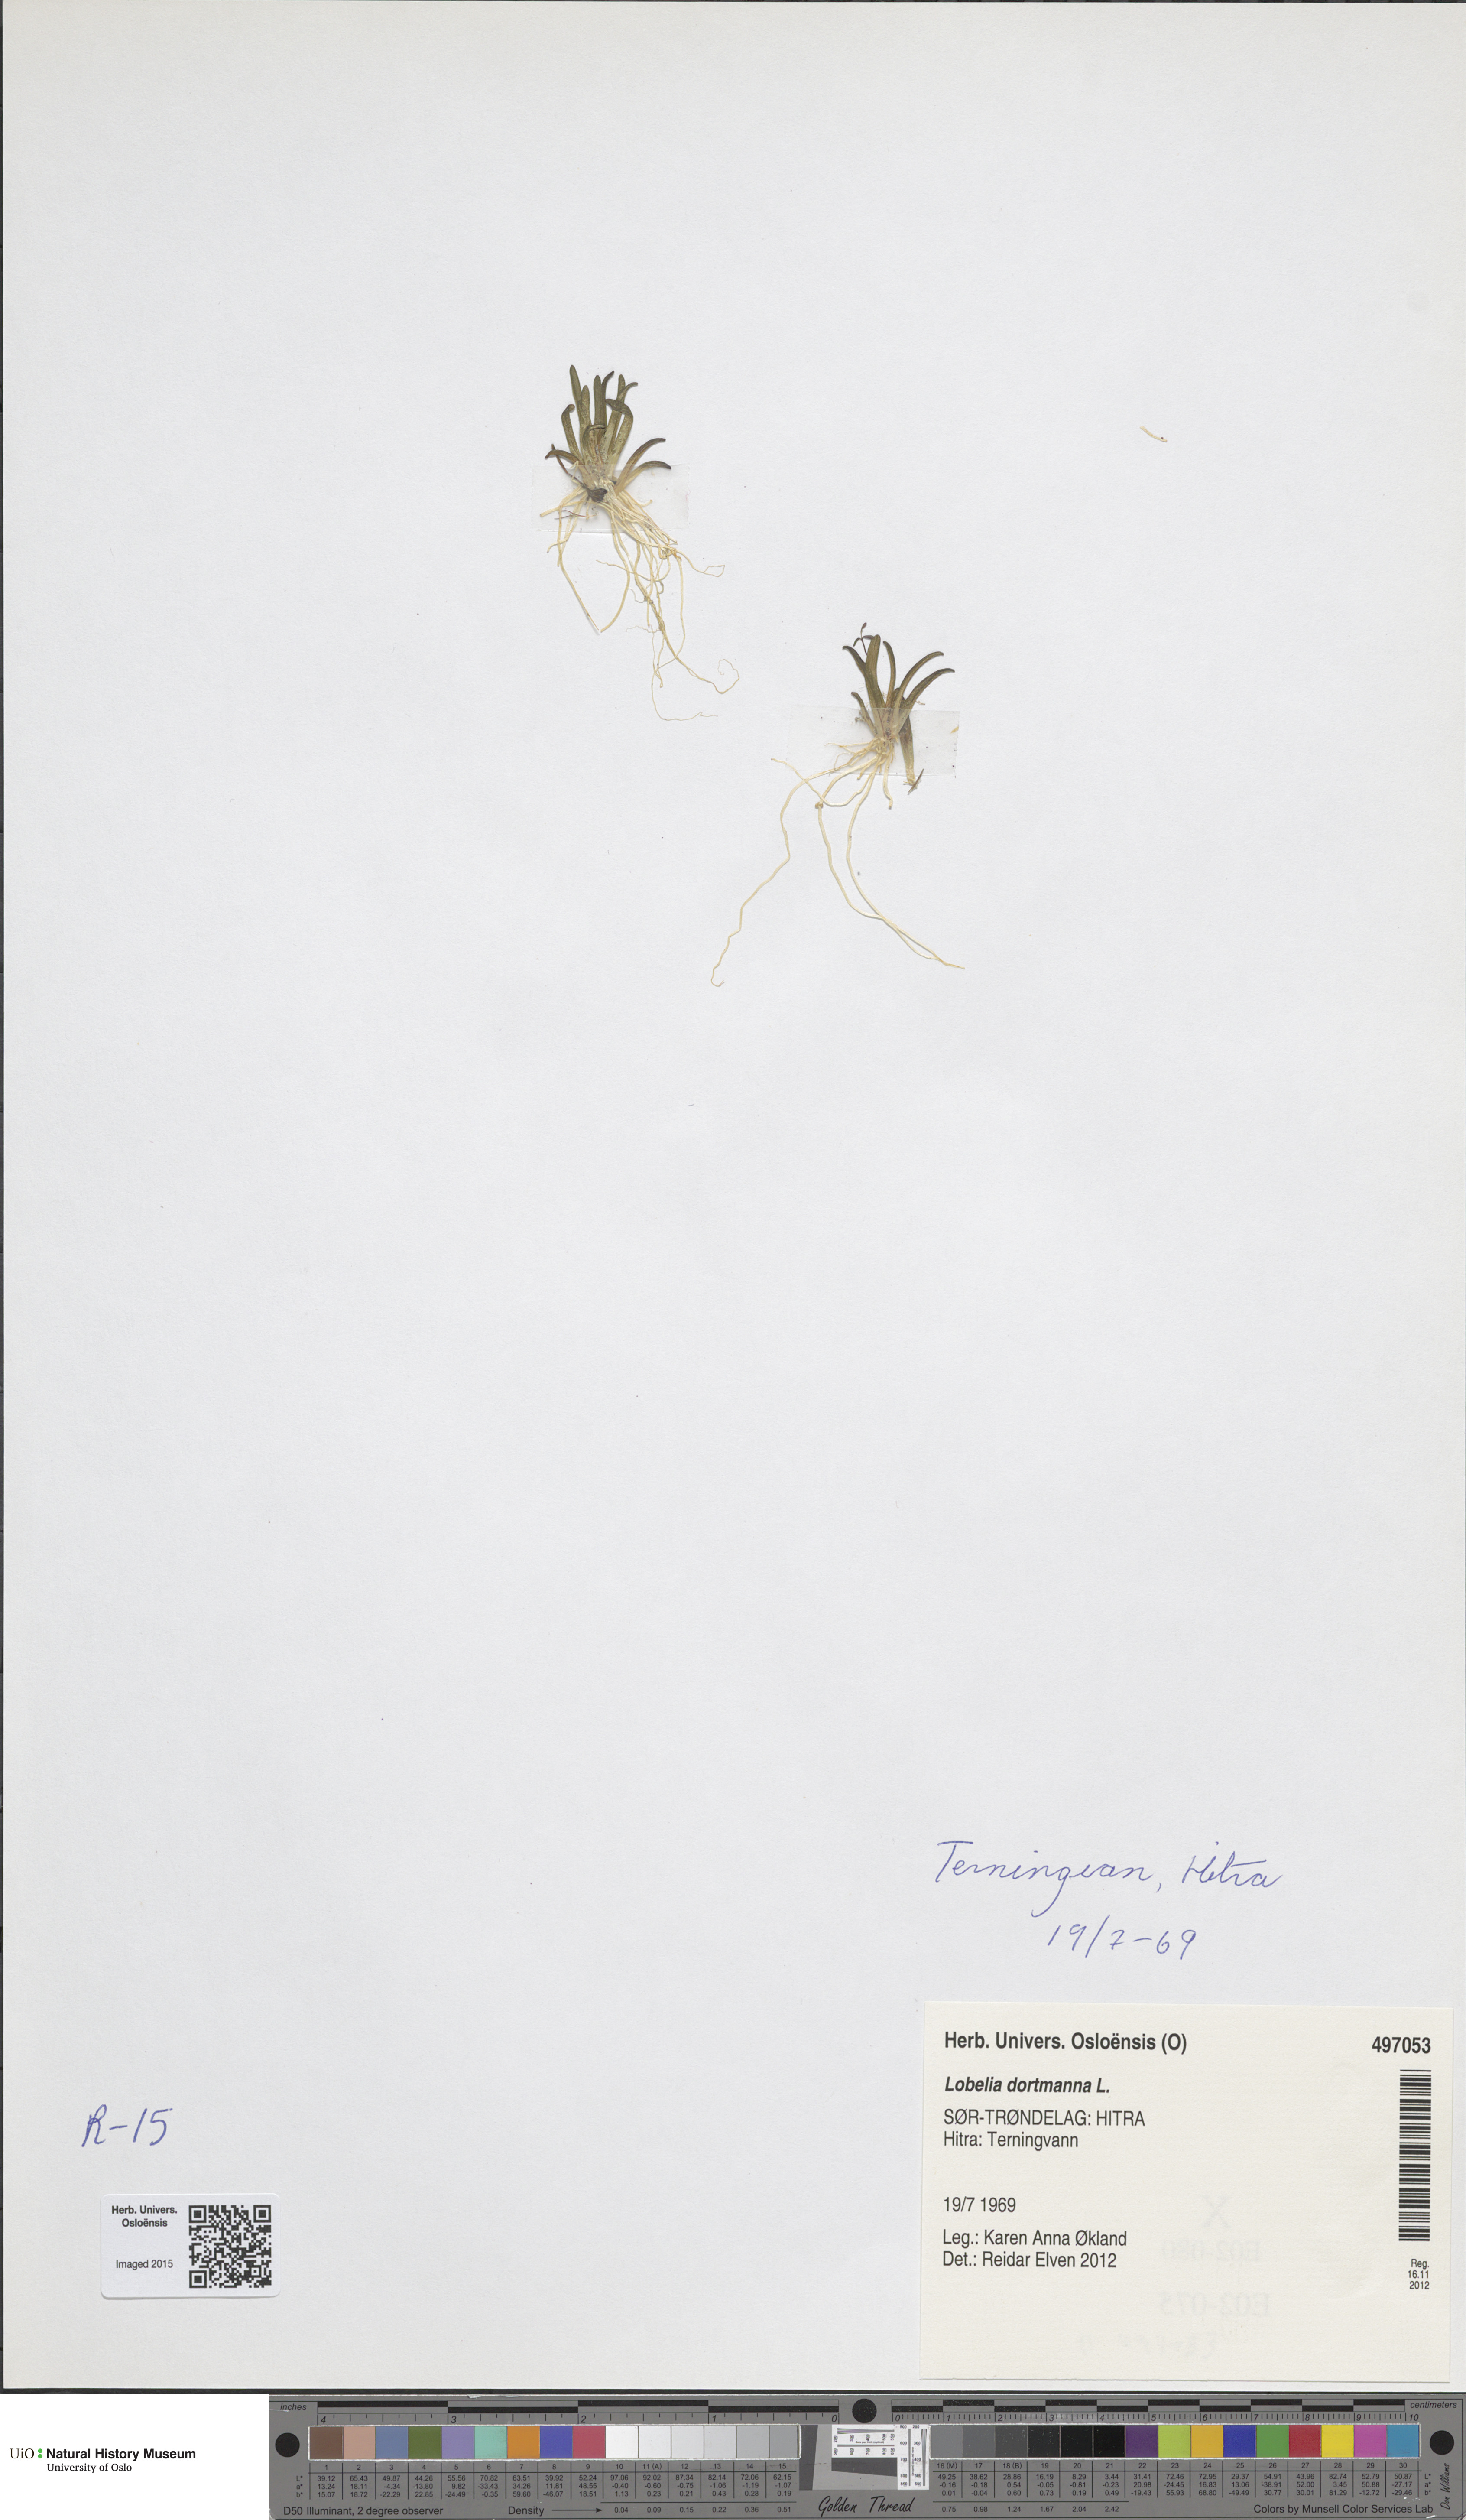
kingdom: Plantae
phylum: Tracheophyta
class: Magnoliopsida
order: Asterales
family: Campanulaceae
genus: Lobelia
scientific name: Lobelia dortmanna
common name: Water lobelia
